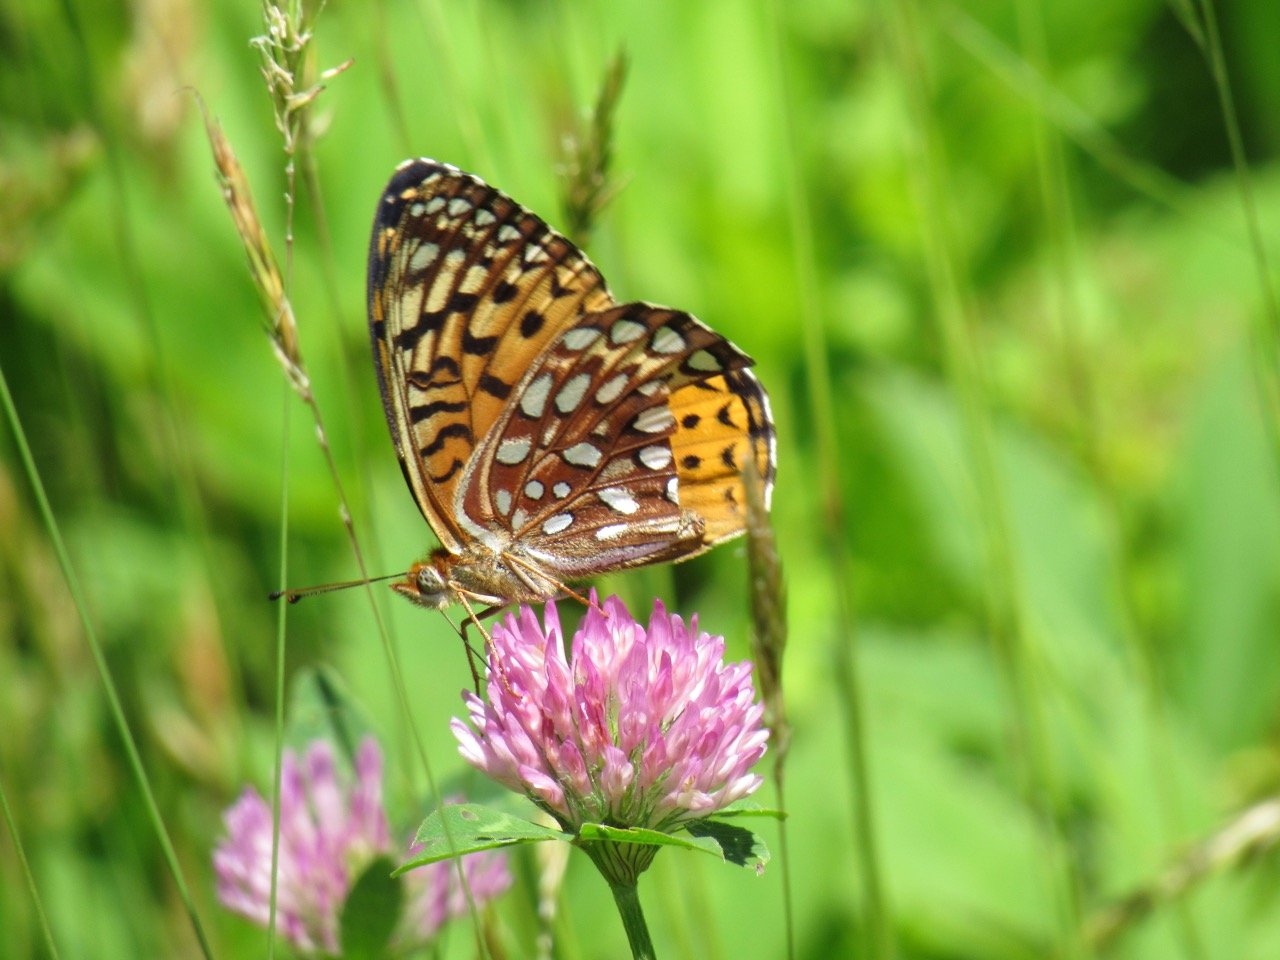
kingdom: Animalia
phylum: Arthropoda
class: Insecta
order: Lepidoptera
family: Nymphalidae
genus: Speyeria
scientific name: Speyeria atlantis
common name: Atlantis Fritillary
